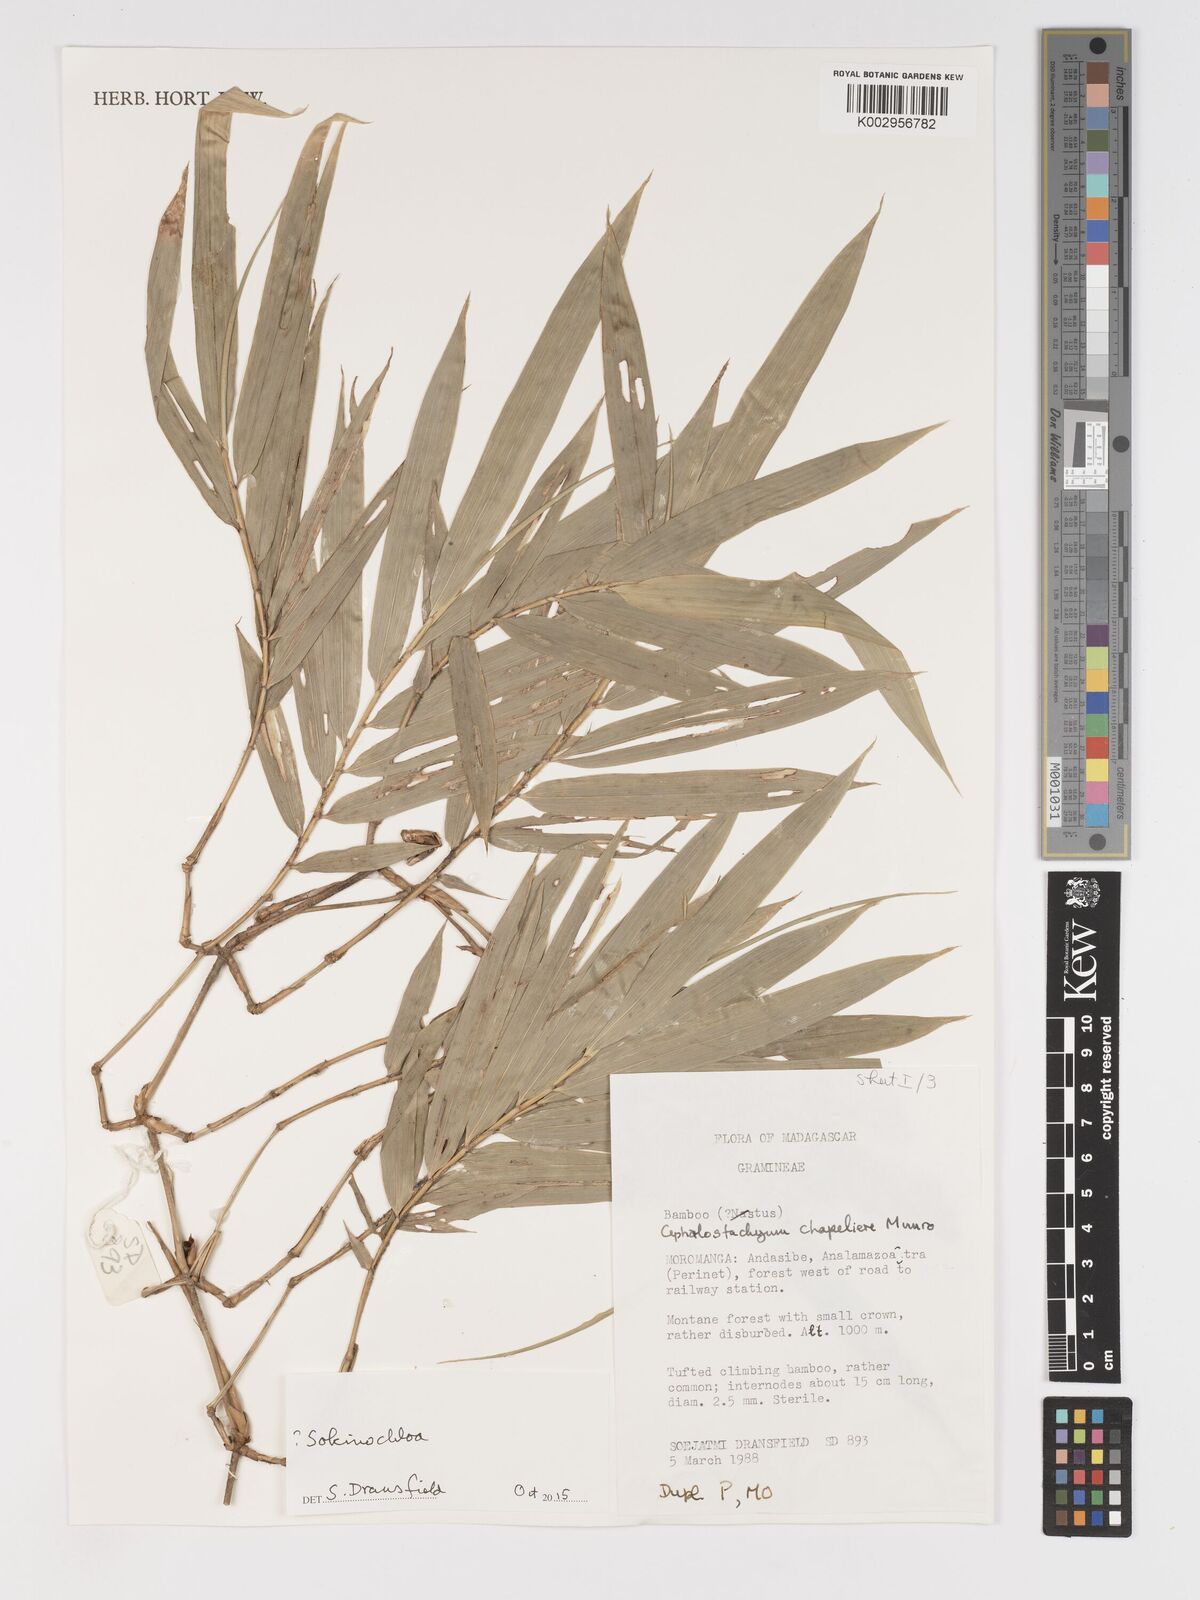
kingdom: Plantae
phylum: Tracheophyta
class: Liliopsida
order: Poales
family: Poaceae
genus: Sokinochloa
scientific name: Sokinochloa
